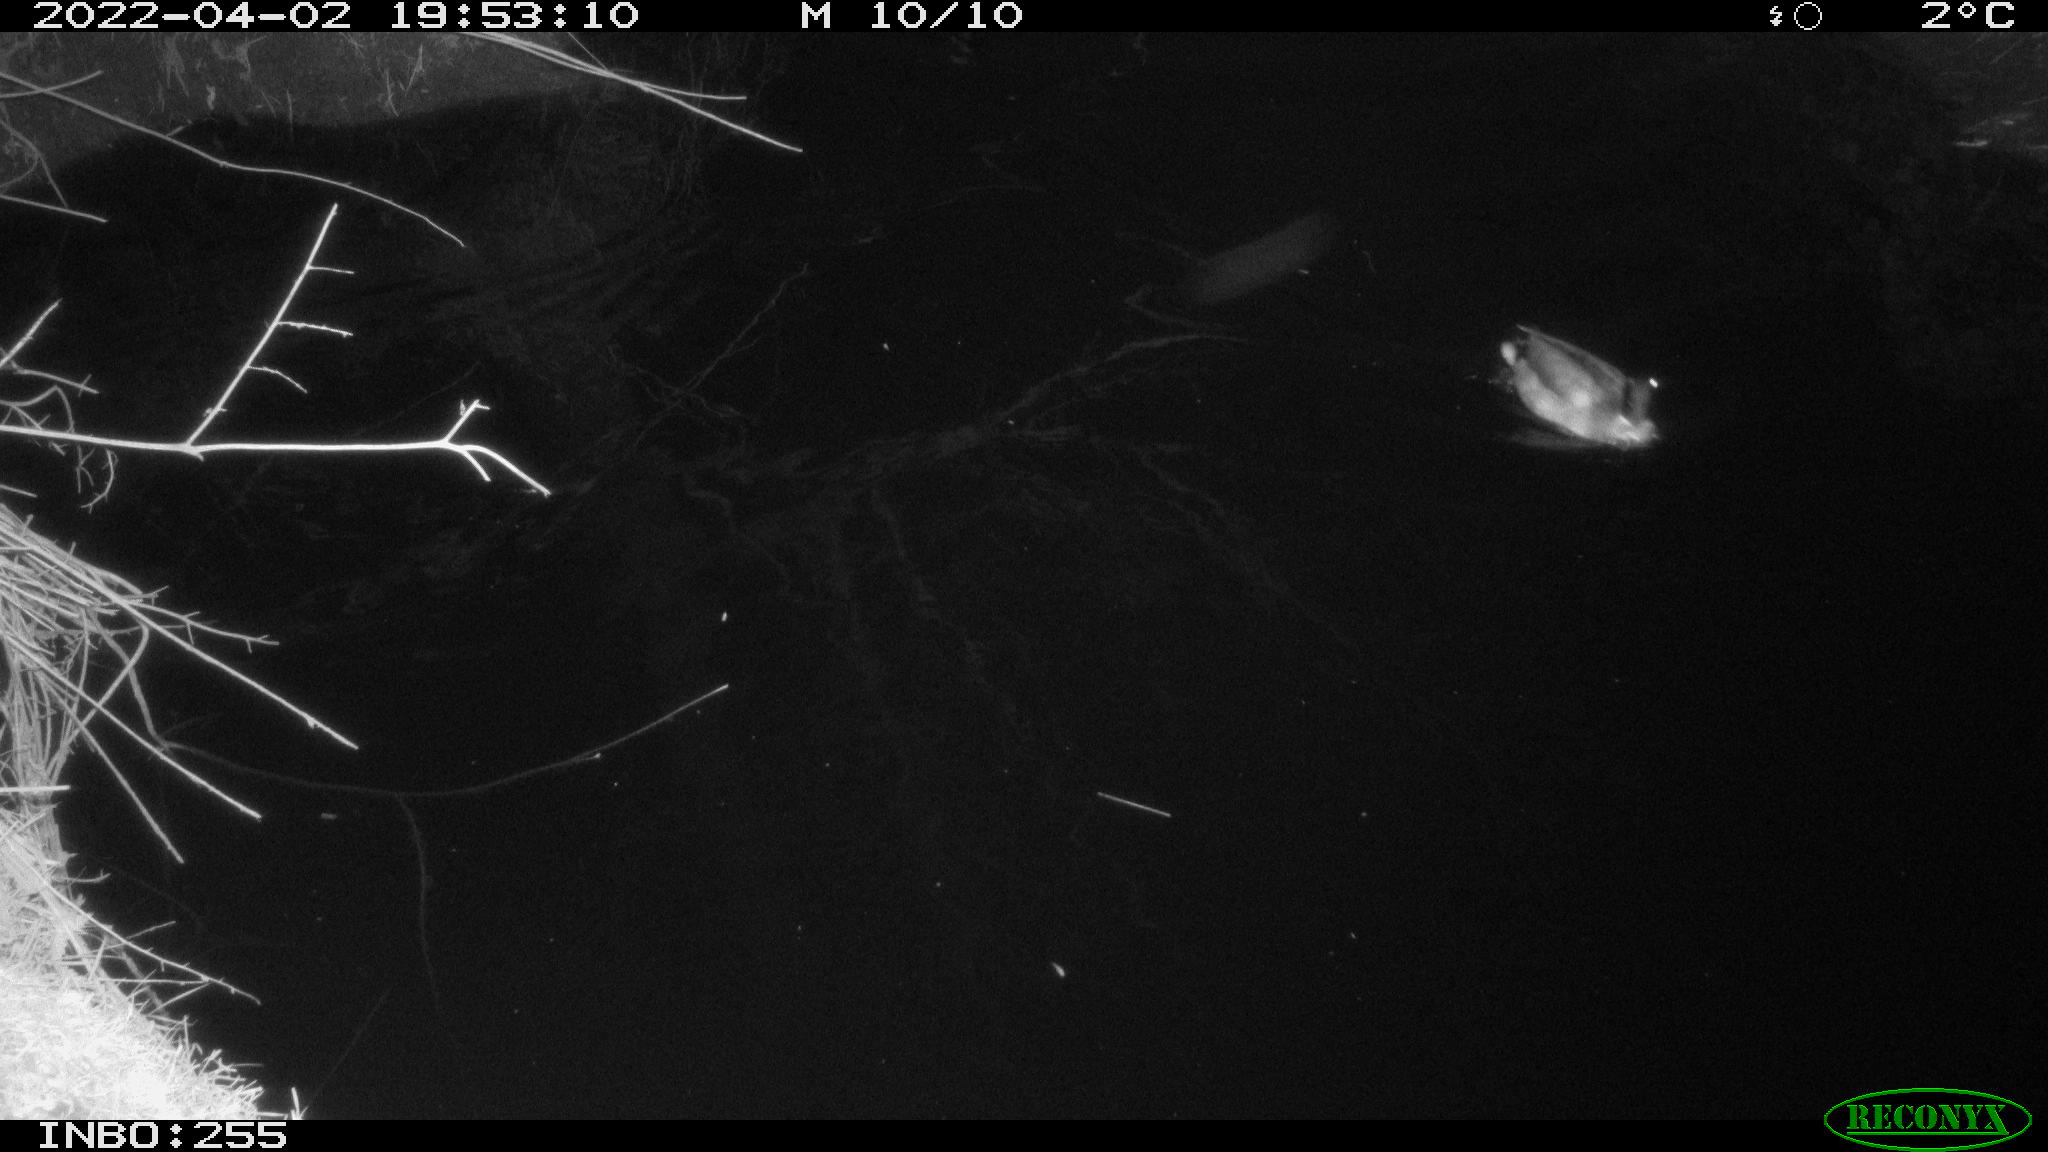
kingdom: Animalia
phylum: Chordata
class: Mammalia
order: Rodentia
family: Muridae
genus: Rattus
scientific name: Rattus norvegicus
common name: Brown rat
